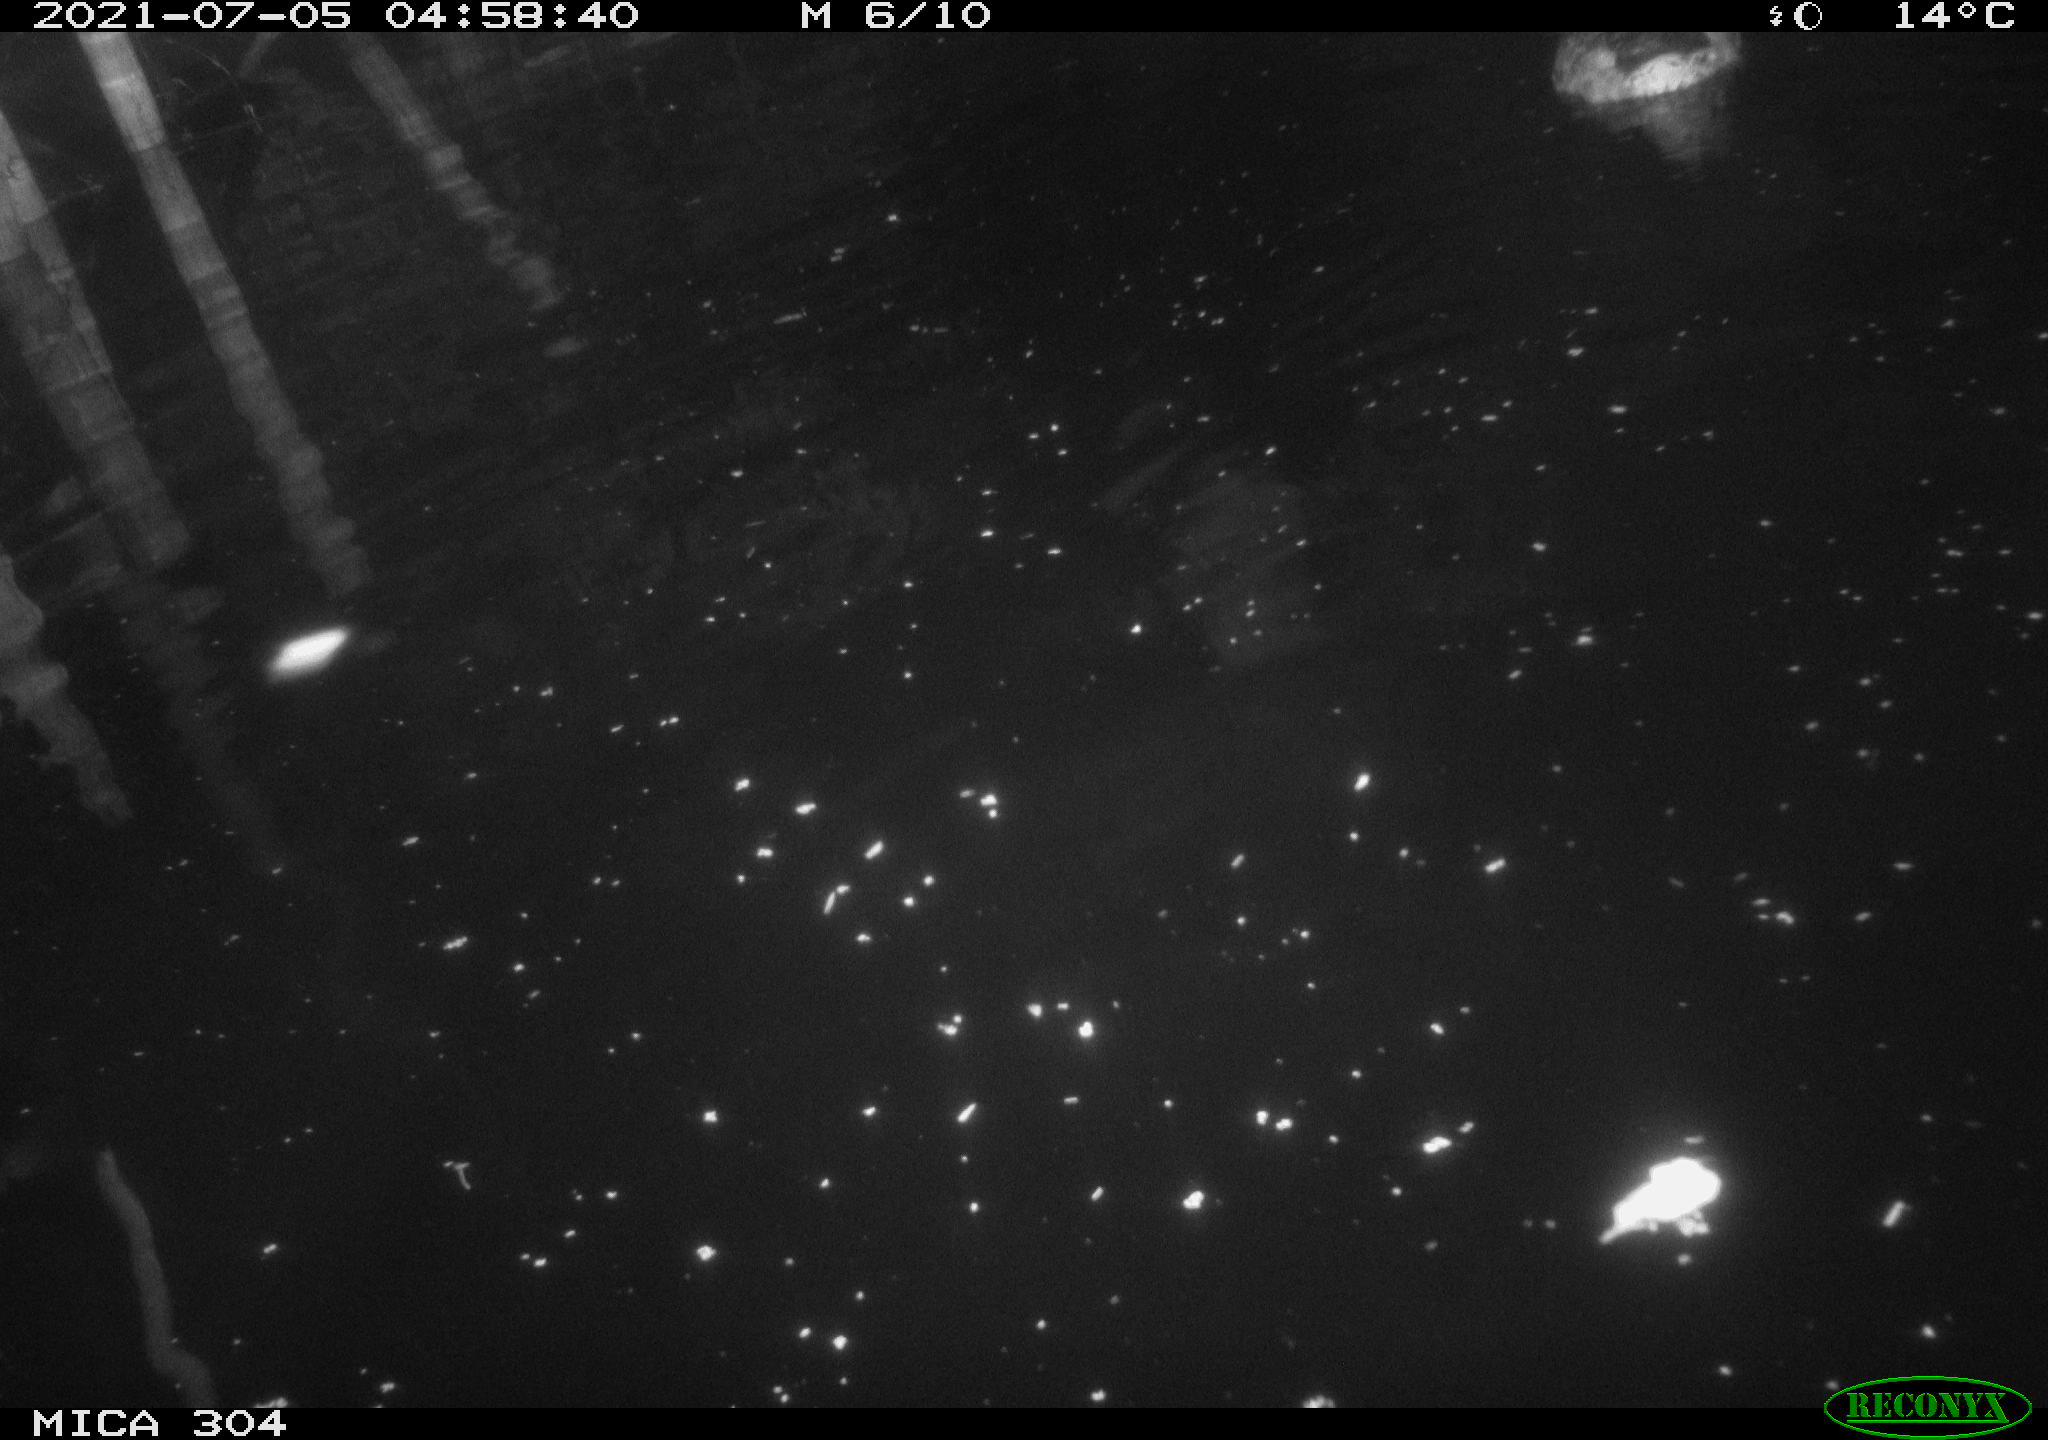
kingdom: Animalia
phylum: Chordata
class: Aves
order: Anseriformes
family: Anatidae
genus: Anas
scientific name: Anas platyrhynchos
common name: Mallard
